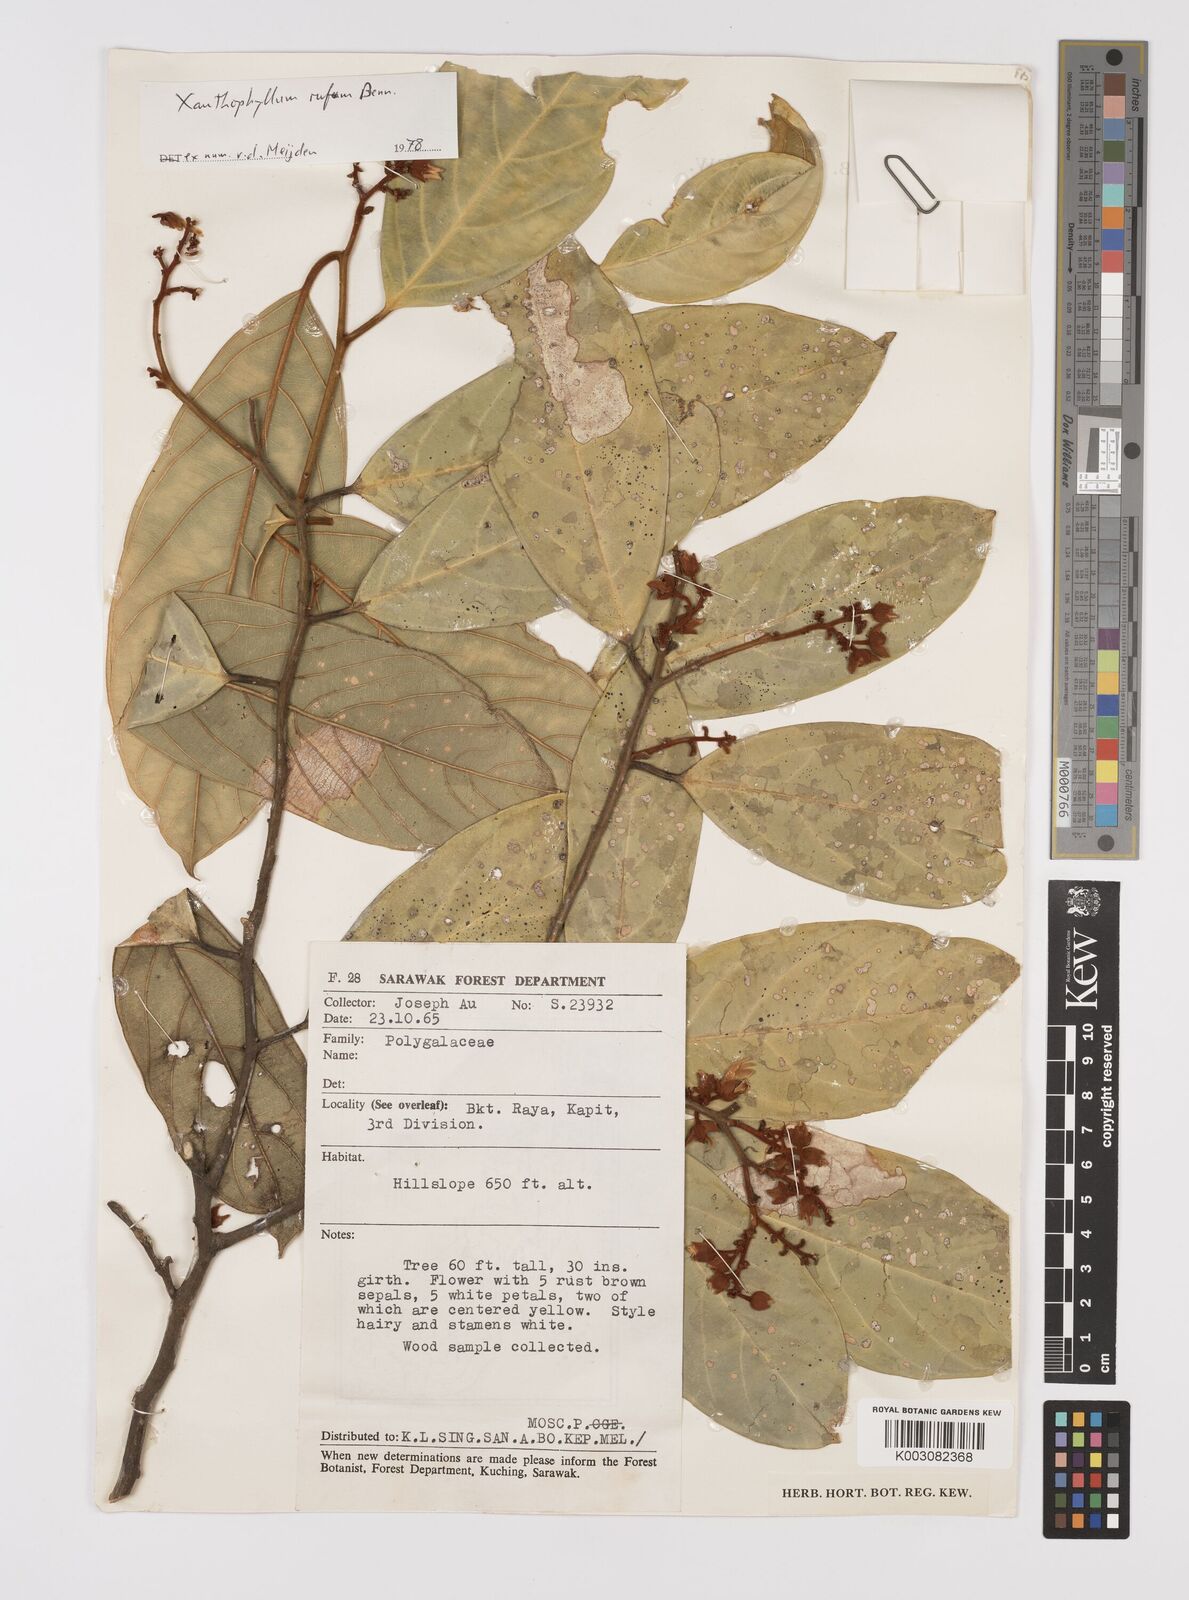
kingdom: Plantae
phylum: Tracheophyta
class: Magnoliopsida
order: Fabales
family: Polygalaceae
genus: Xanthophyllum
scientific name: Xanthophyllum rufum
